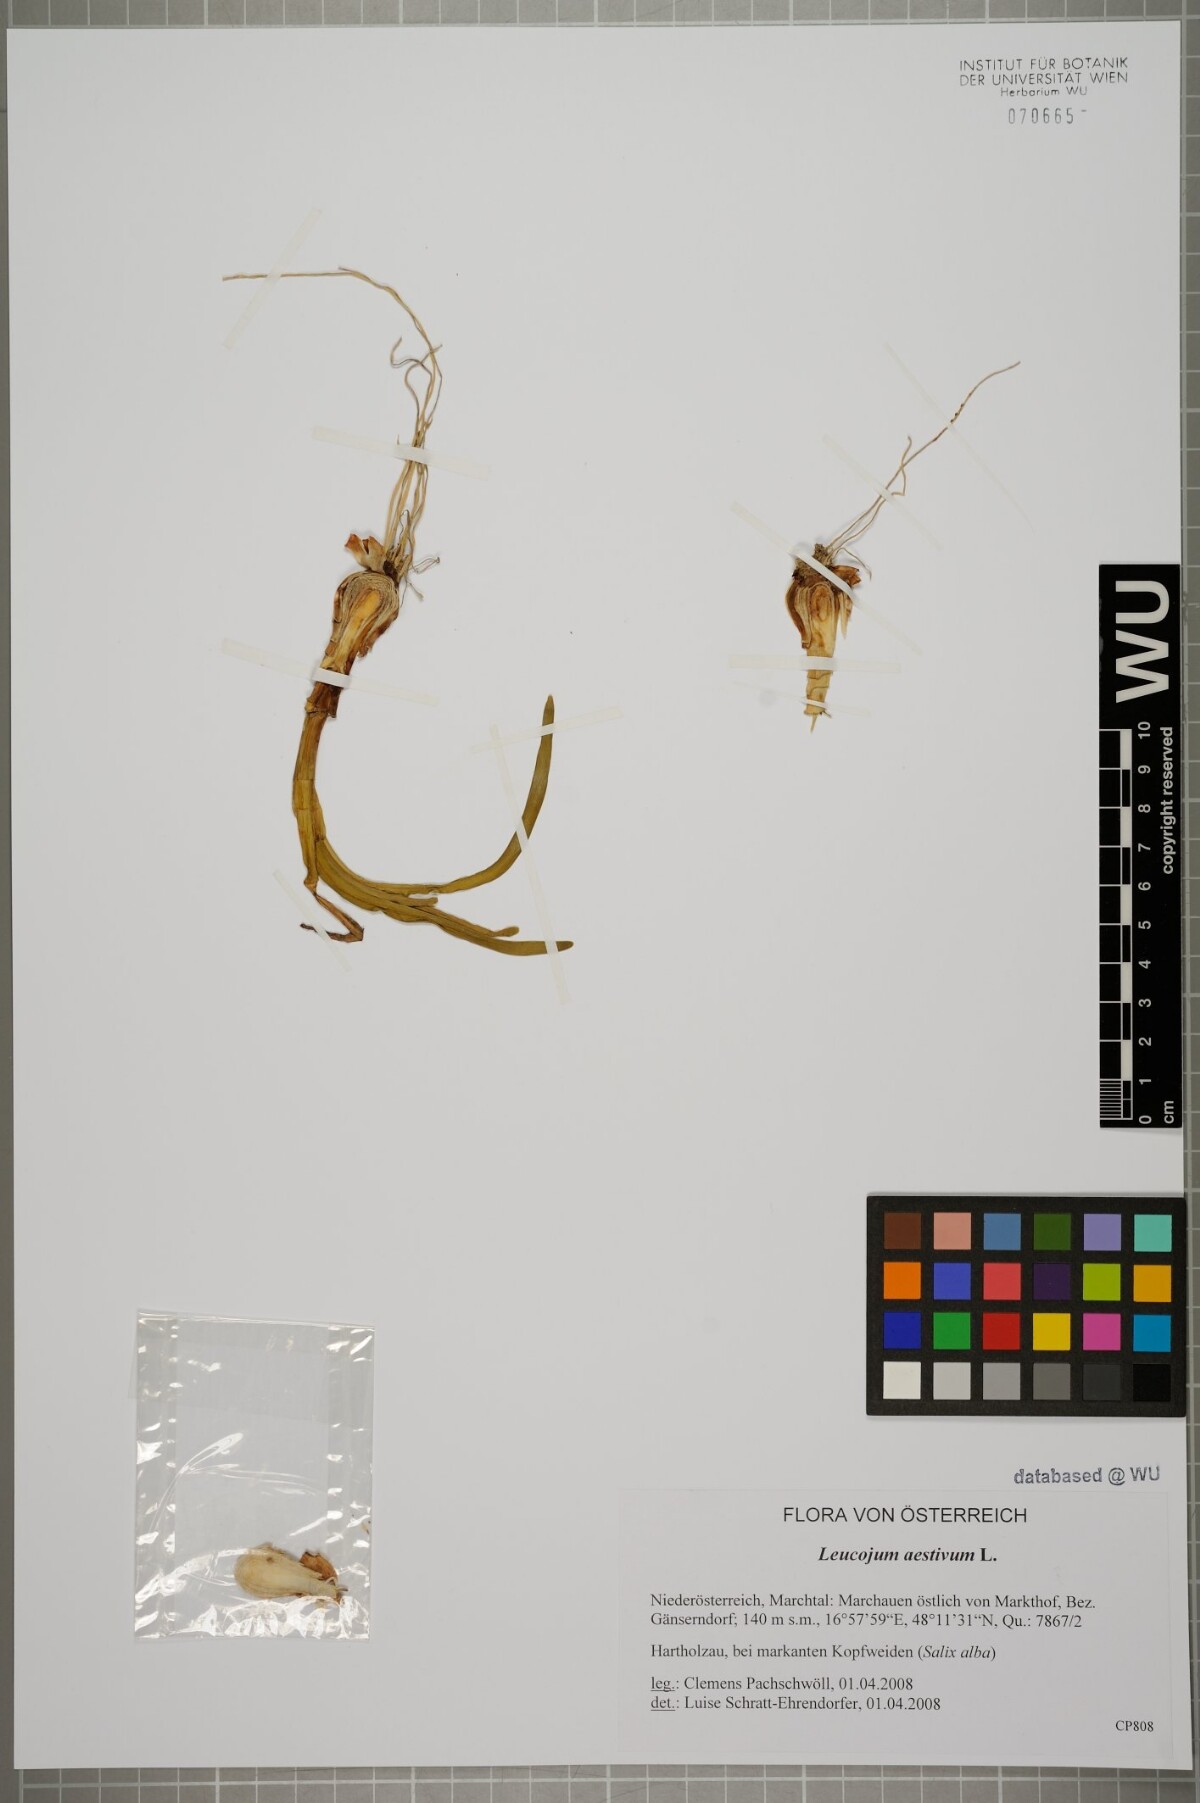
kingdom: Plantae
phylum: Tracheophyta
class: Liliopsida
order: Asparagales
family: Amaryllidaceae
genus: Leucojum
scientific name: Leucojum aestivum
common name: Summer snowflake
